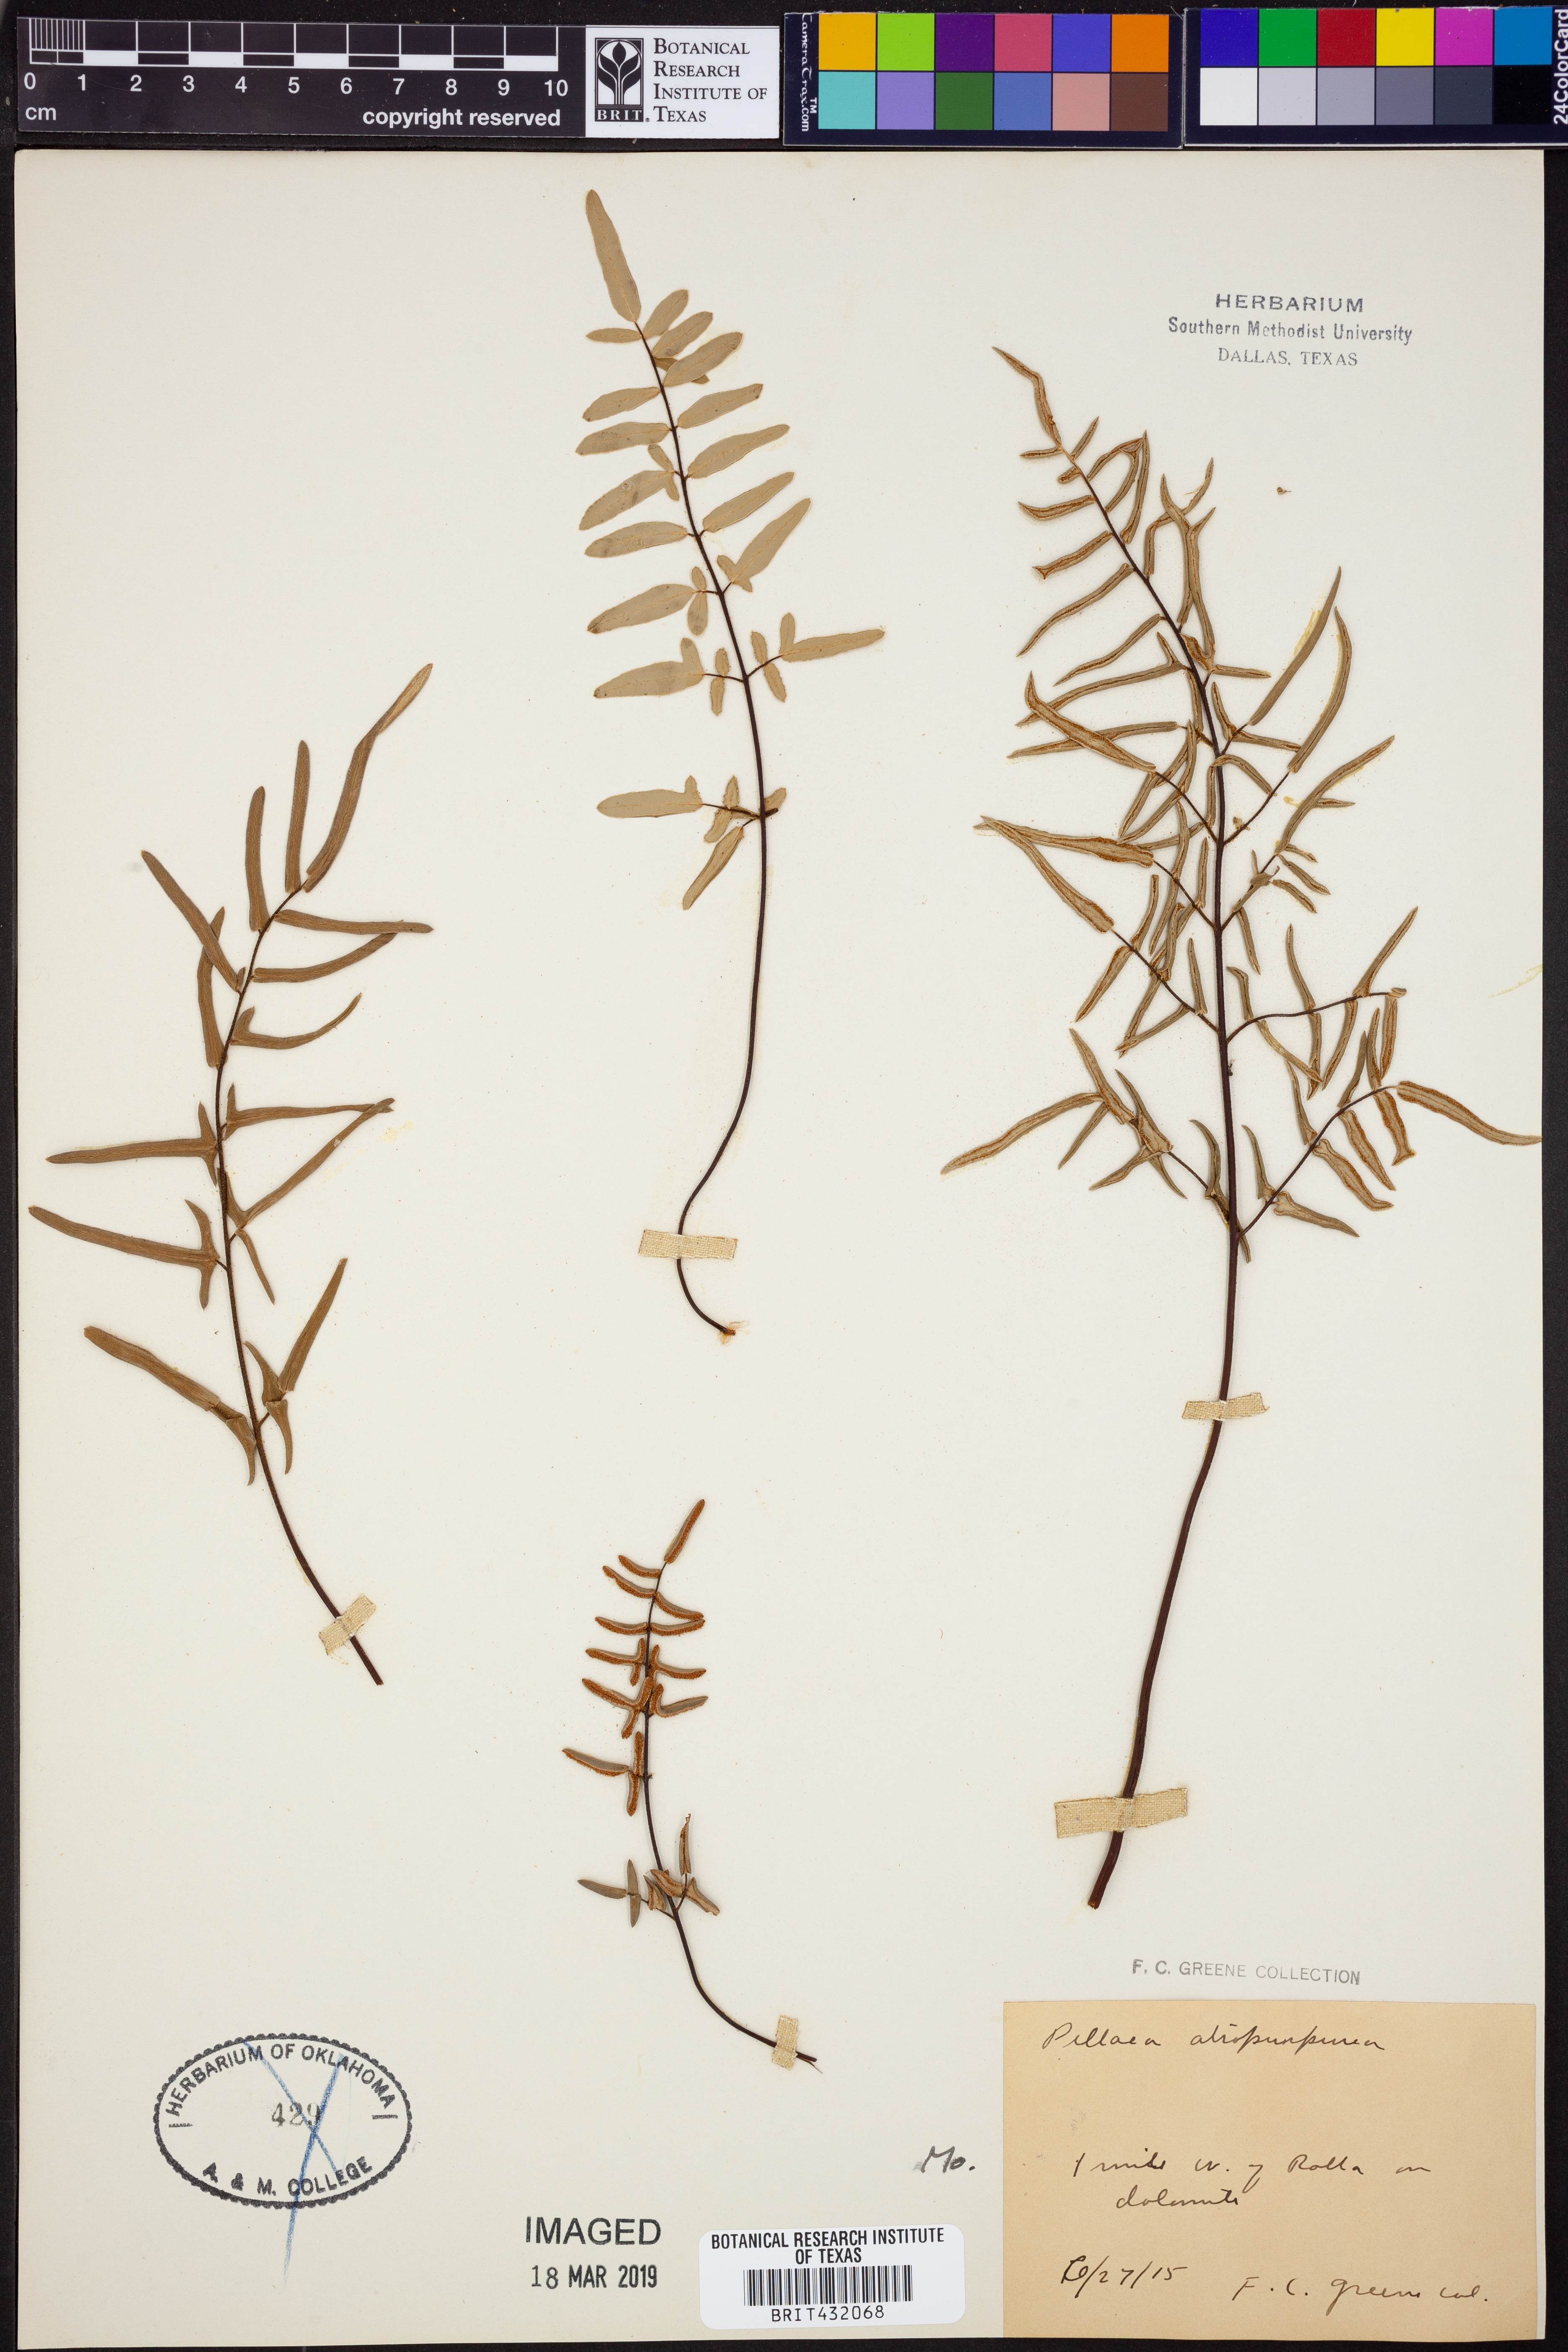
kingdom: Plantae
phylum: Tracheophyta
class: Polypodiopsida
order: Polypodiales
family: Pteridaceae
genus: Pellaea
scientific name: Pellaea atropurpurea
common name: Hairy cliffbrake
